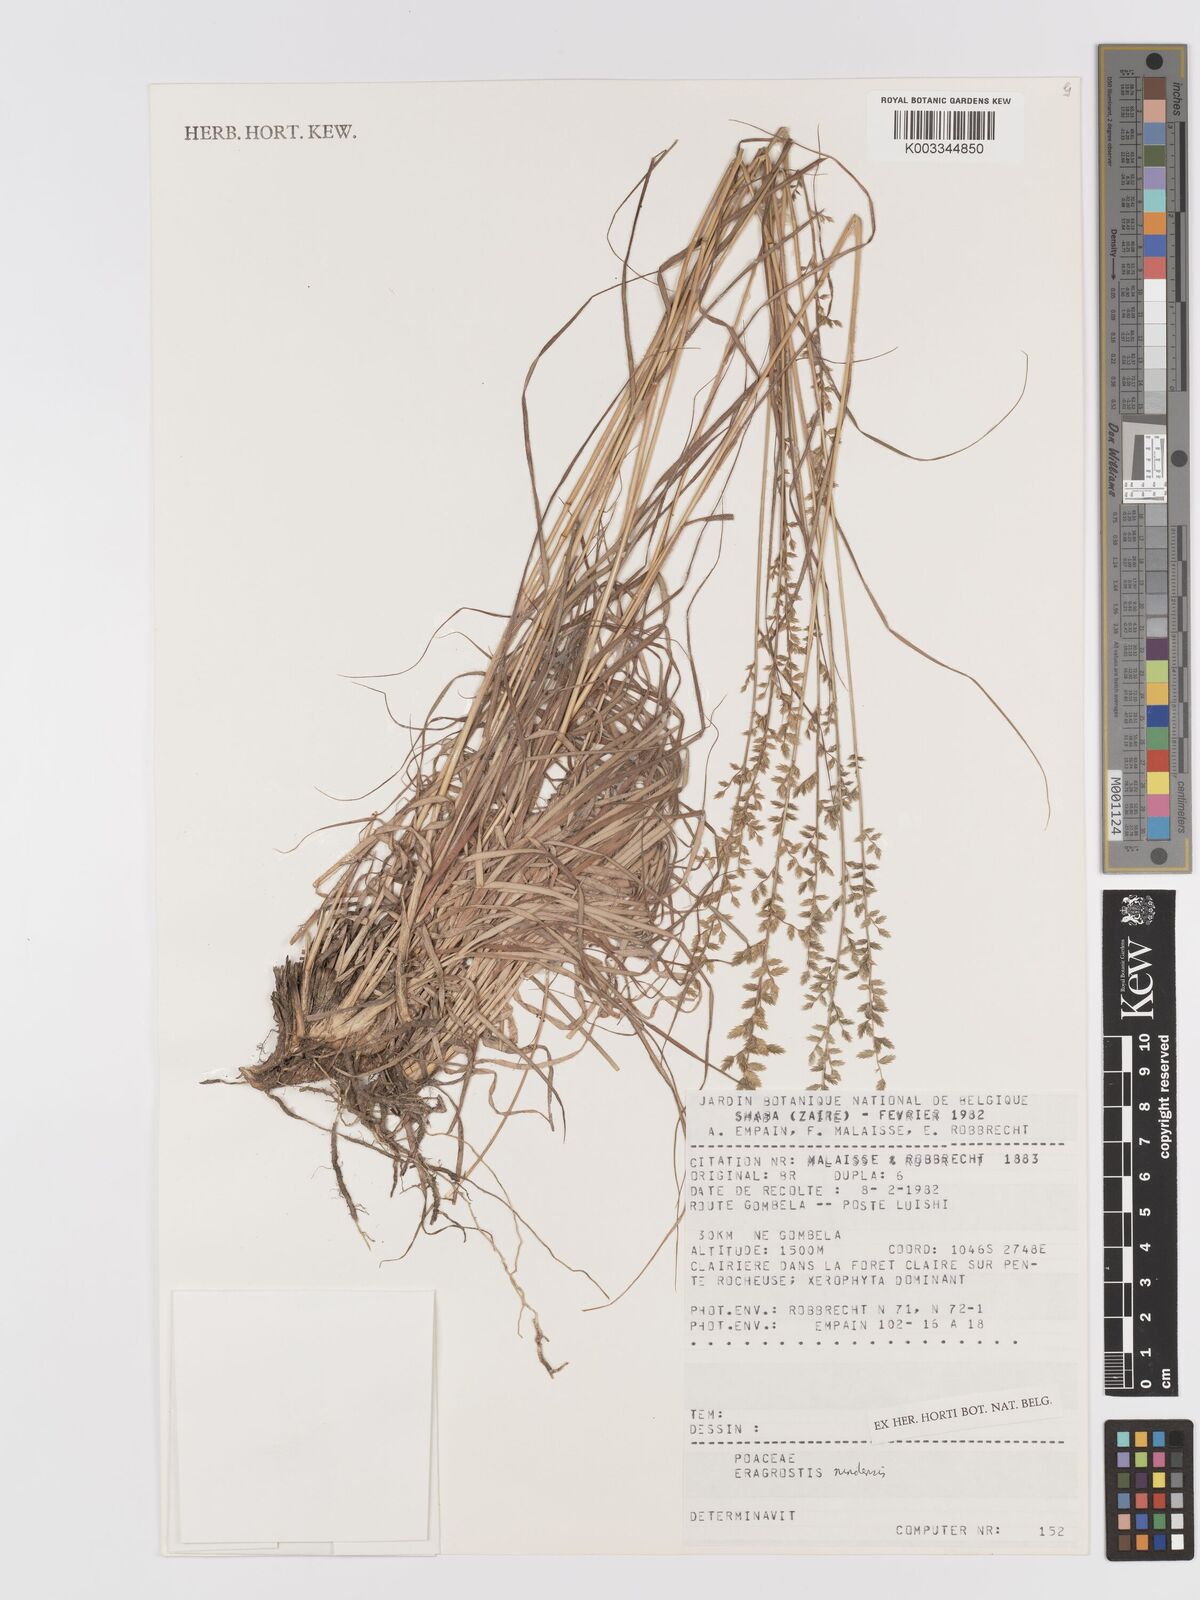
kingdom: Plantae
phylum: Tracheophyta
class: Liliopsida
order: Poales
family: Poaceae
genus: Eragrostis
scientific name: Eragrostis nindensis
